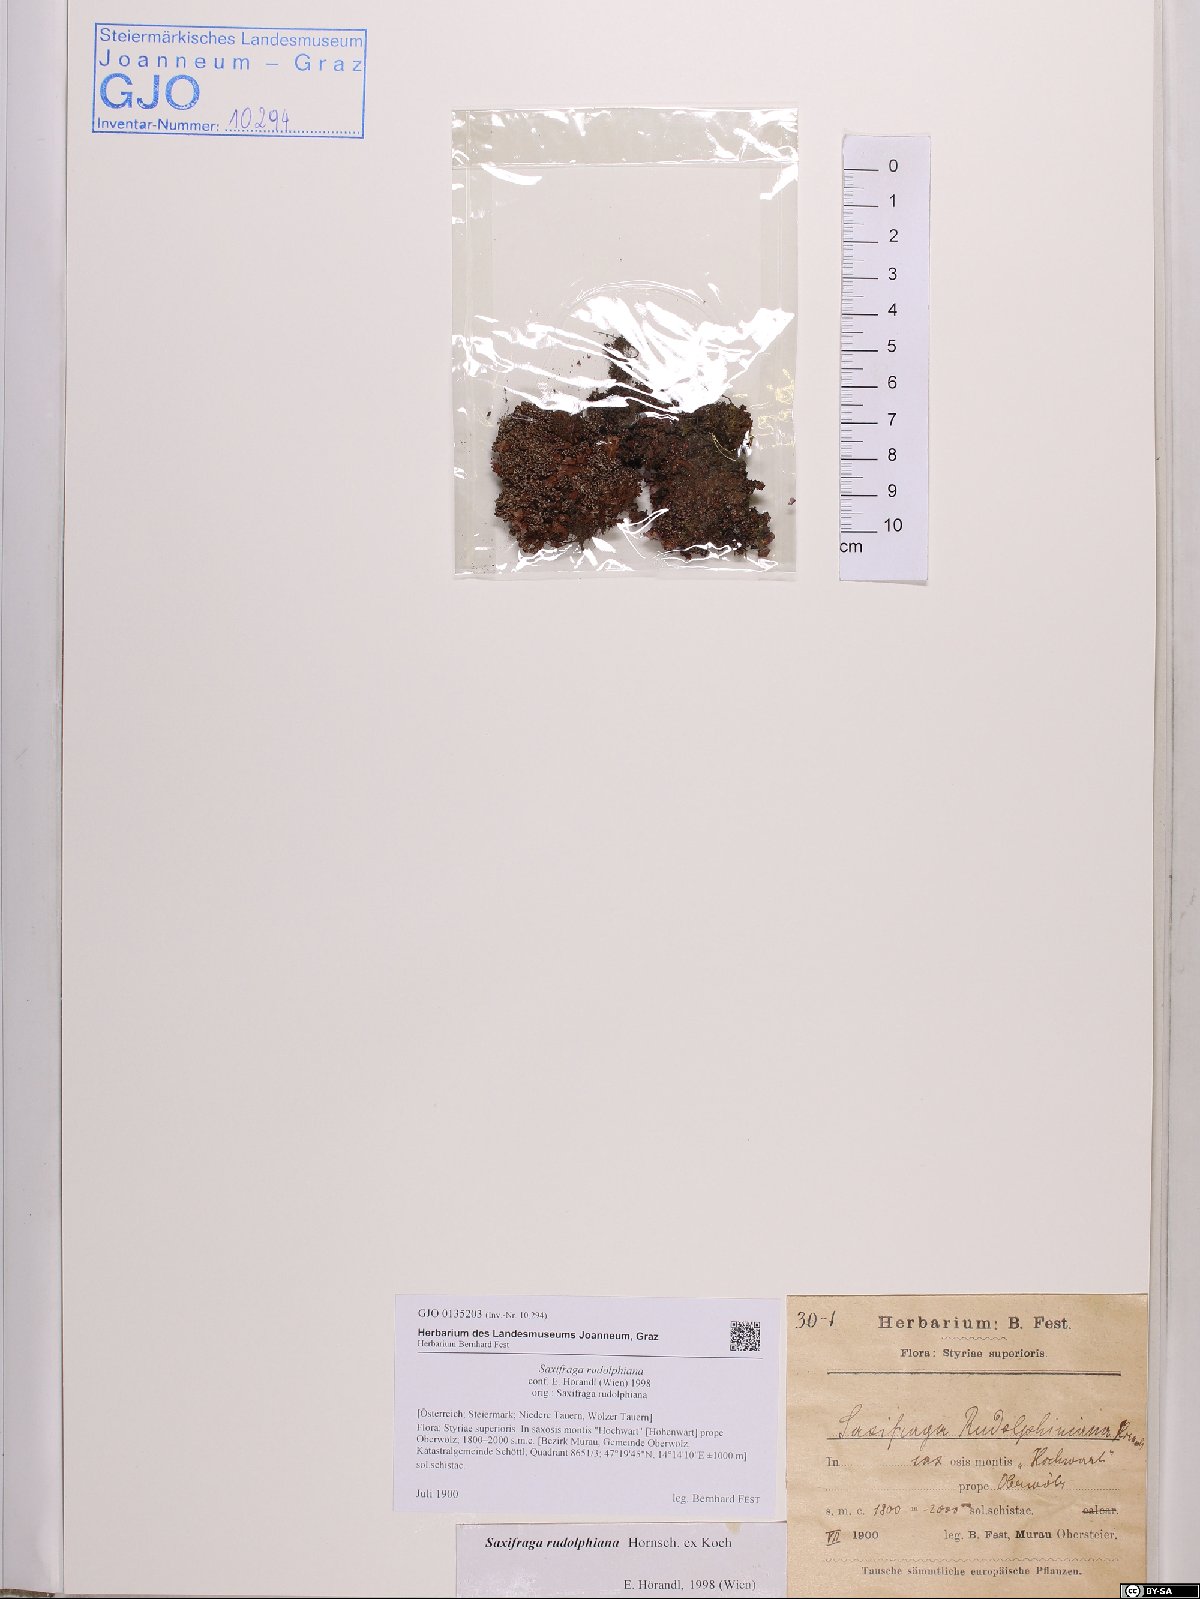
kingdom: Plantae
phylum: Tracheophyta
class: Magnoliopsida
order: Saxifragales
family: Saxifragaceae
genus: Saxifraga
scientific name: Saxifraga oppositifolia
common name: Purple saxifrage
